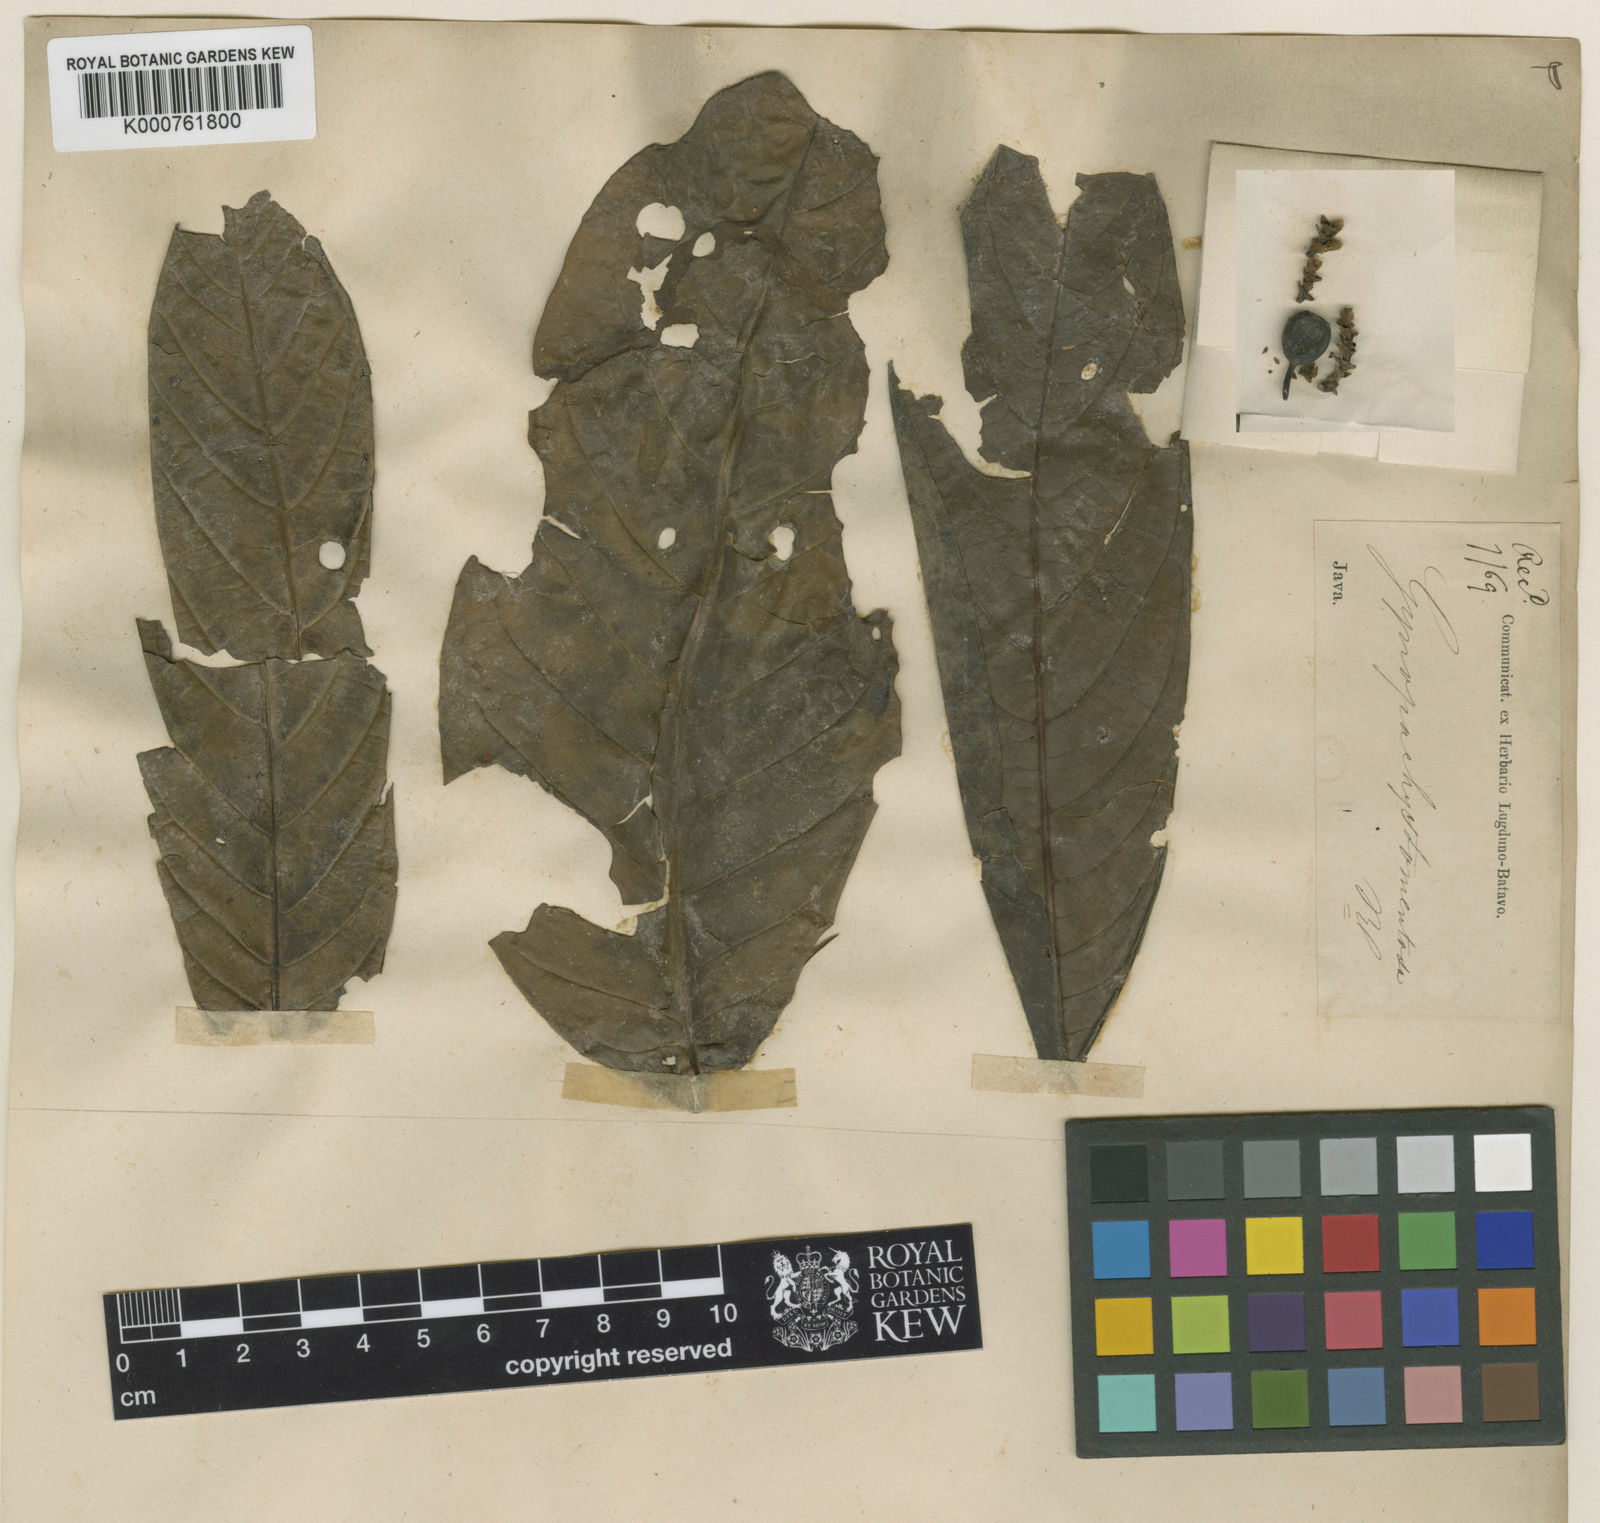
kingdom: Plantae
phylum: Tracheophyta
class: Magnoliopsida
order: Gentianales
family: Rubiaceae
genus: Aidia
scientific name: Aidia tomentosa
